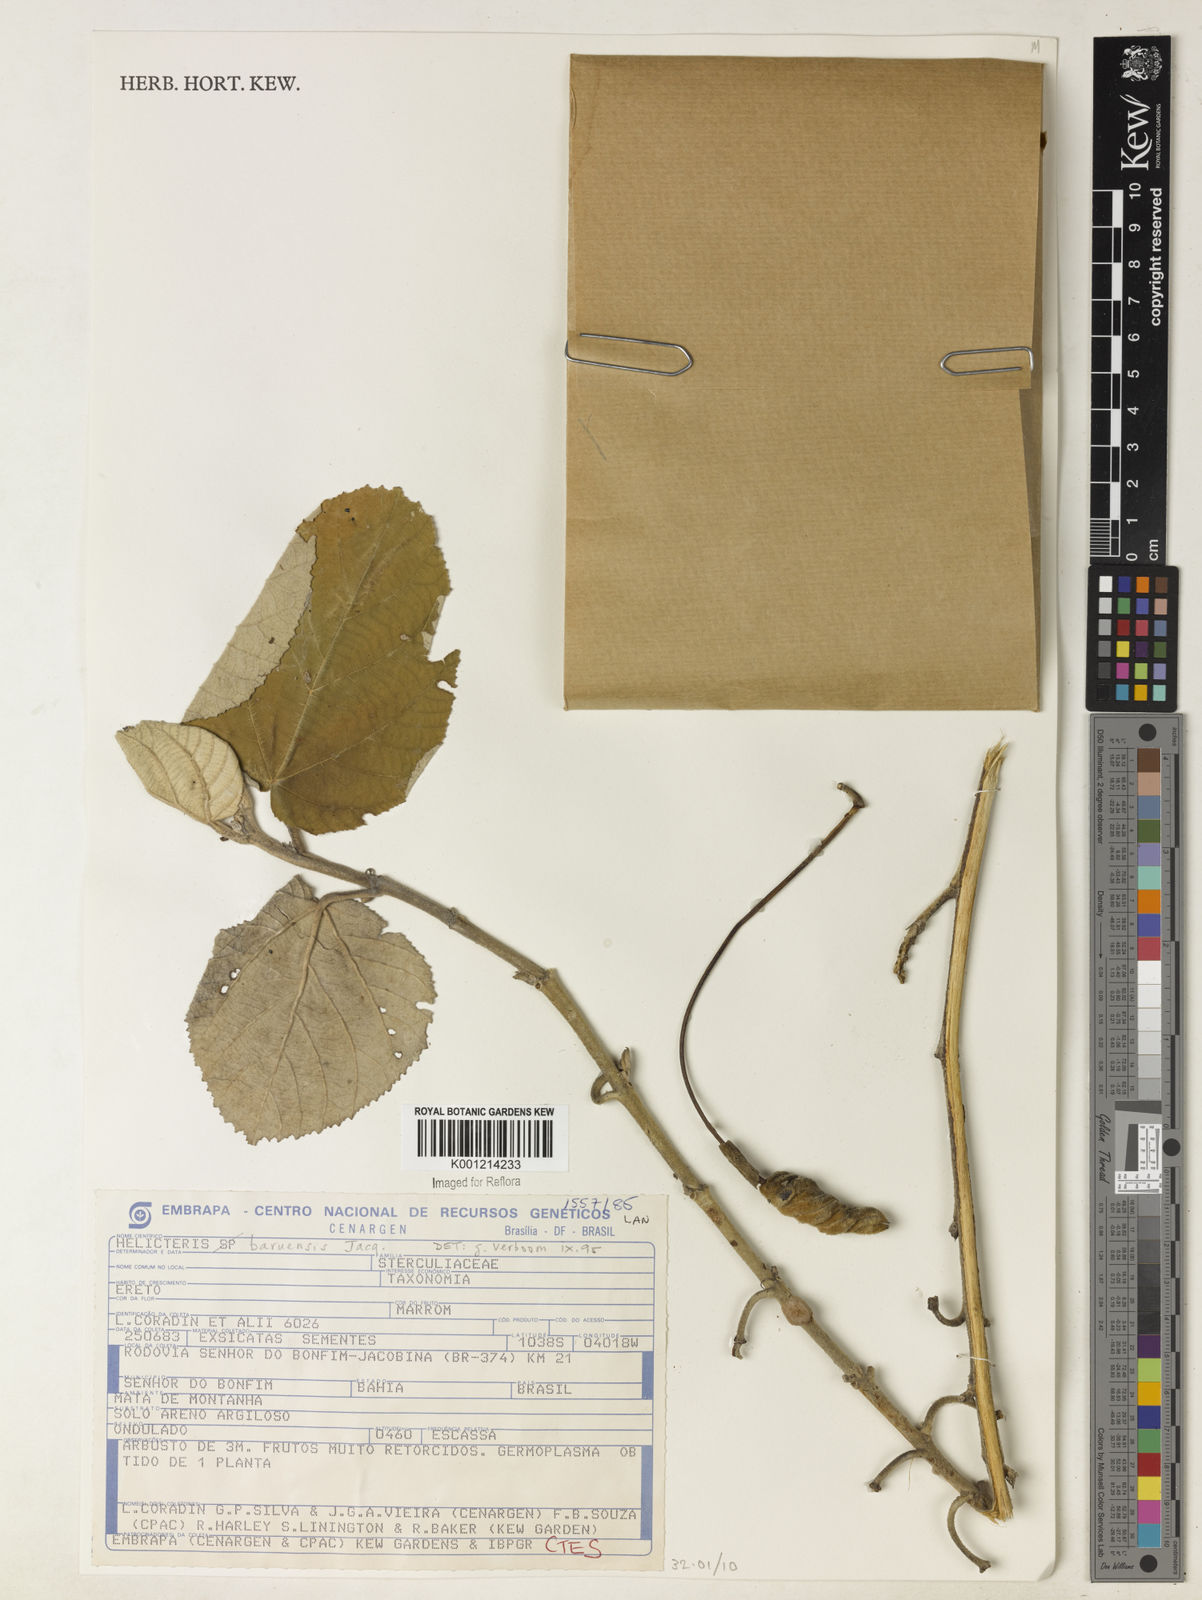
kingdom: Plantae
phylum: Tracheophyta
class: Magnoliopsida
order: Malvales
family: Malvaceae
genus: Helicteres
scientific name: Helicteres baruensis
